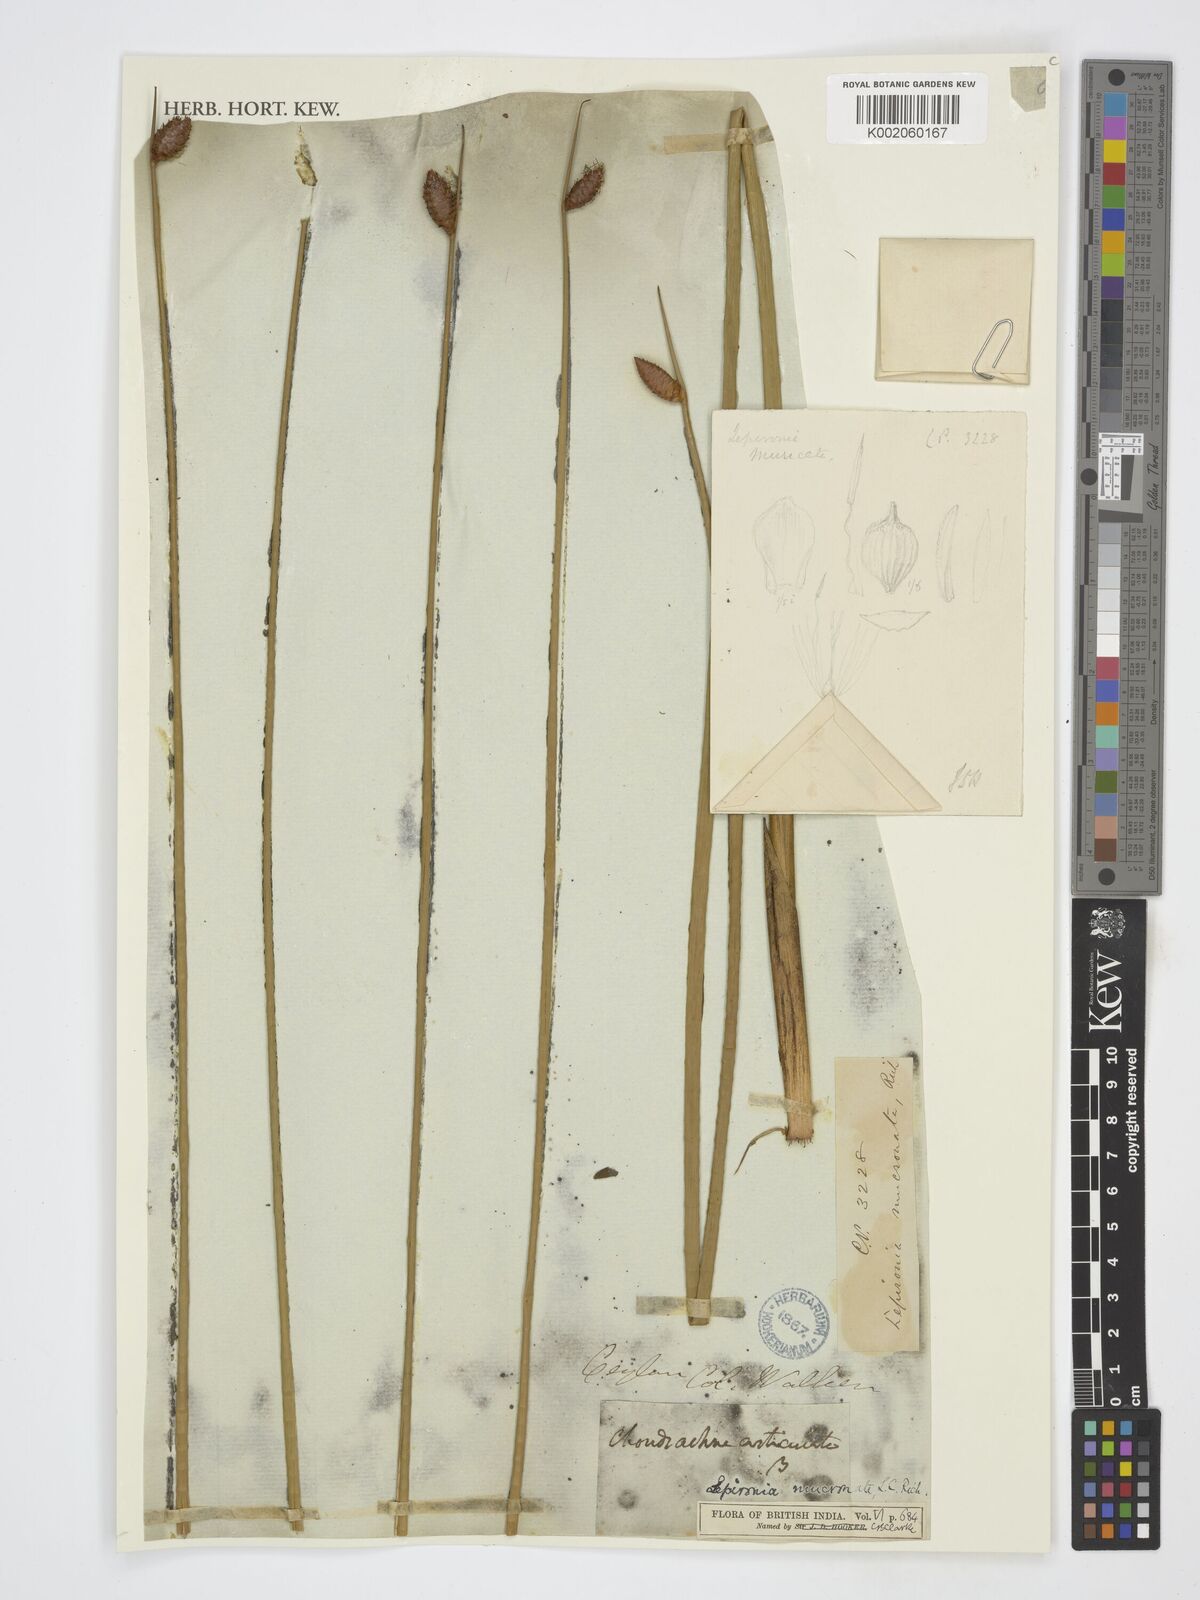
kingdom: Plantae
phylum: Tracheophyta
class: Liliopsida
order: Poales
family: Cyperaceae
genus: Lepironia
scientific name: Lepironia articulata
